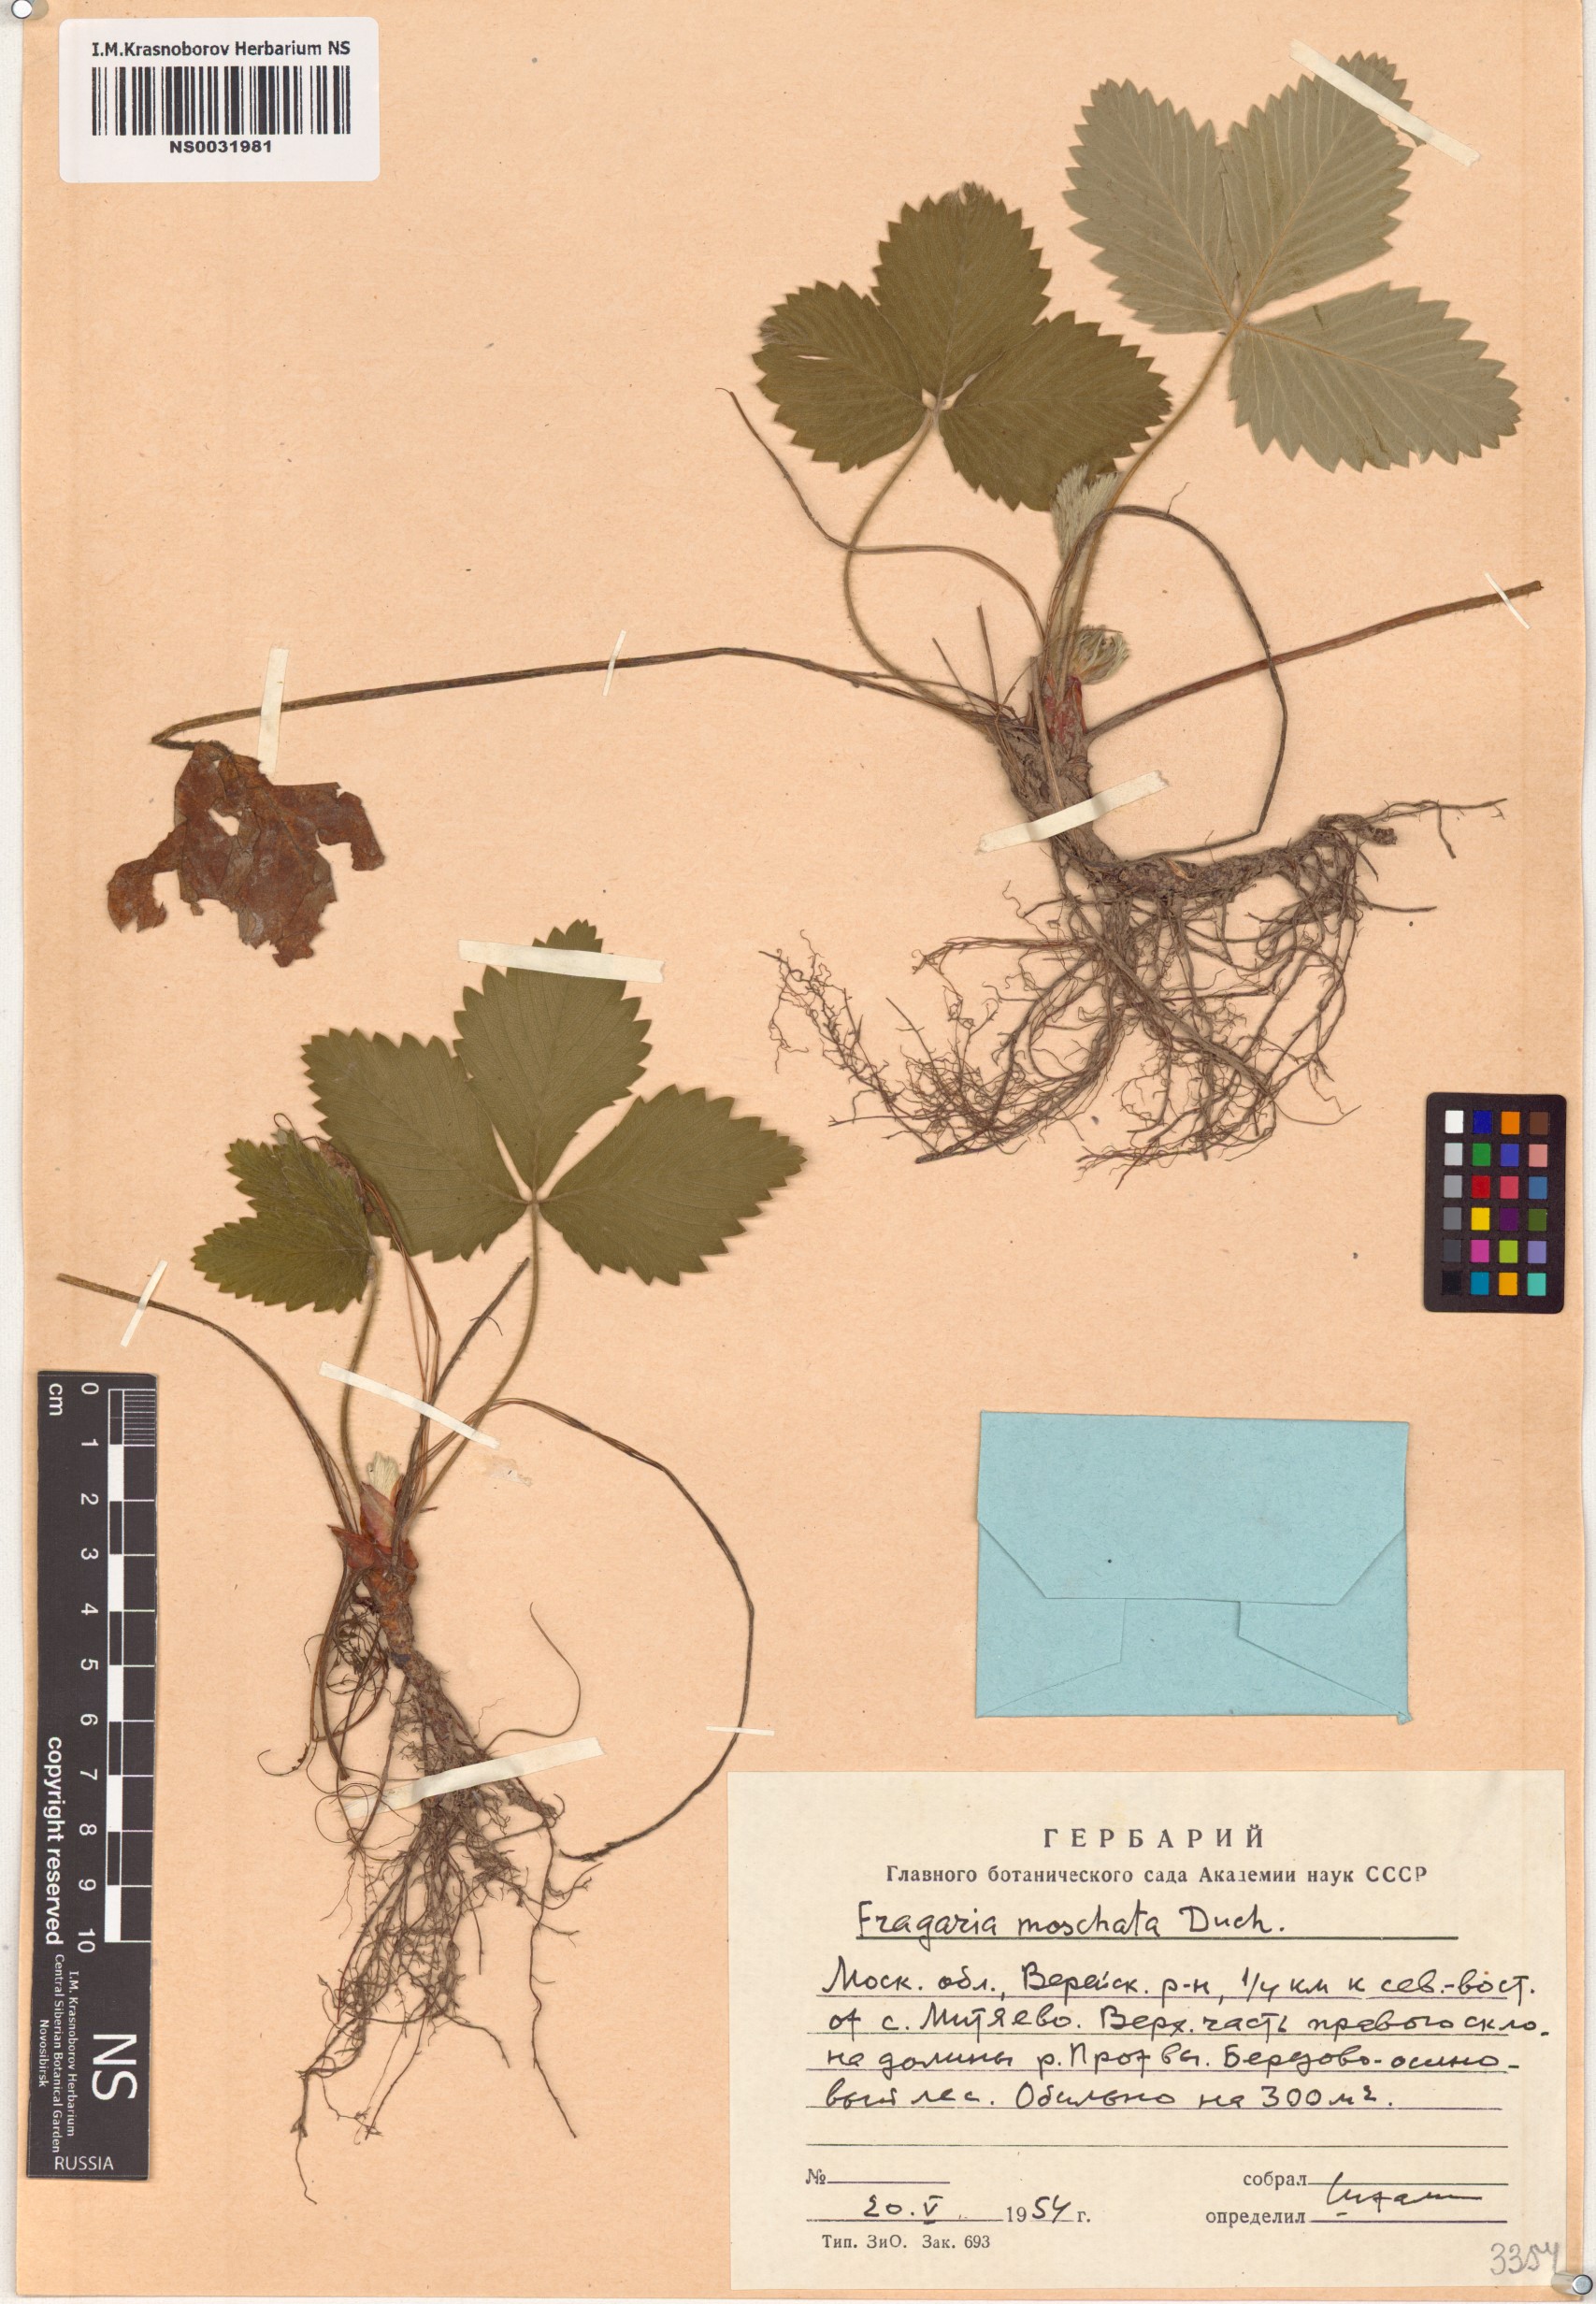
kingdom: Plantae
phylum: Tracheophyta
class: Magnoliopsida
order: Rosales
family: Rosaceae
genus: Fragaria
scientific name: Fragaria moschata
